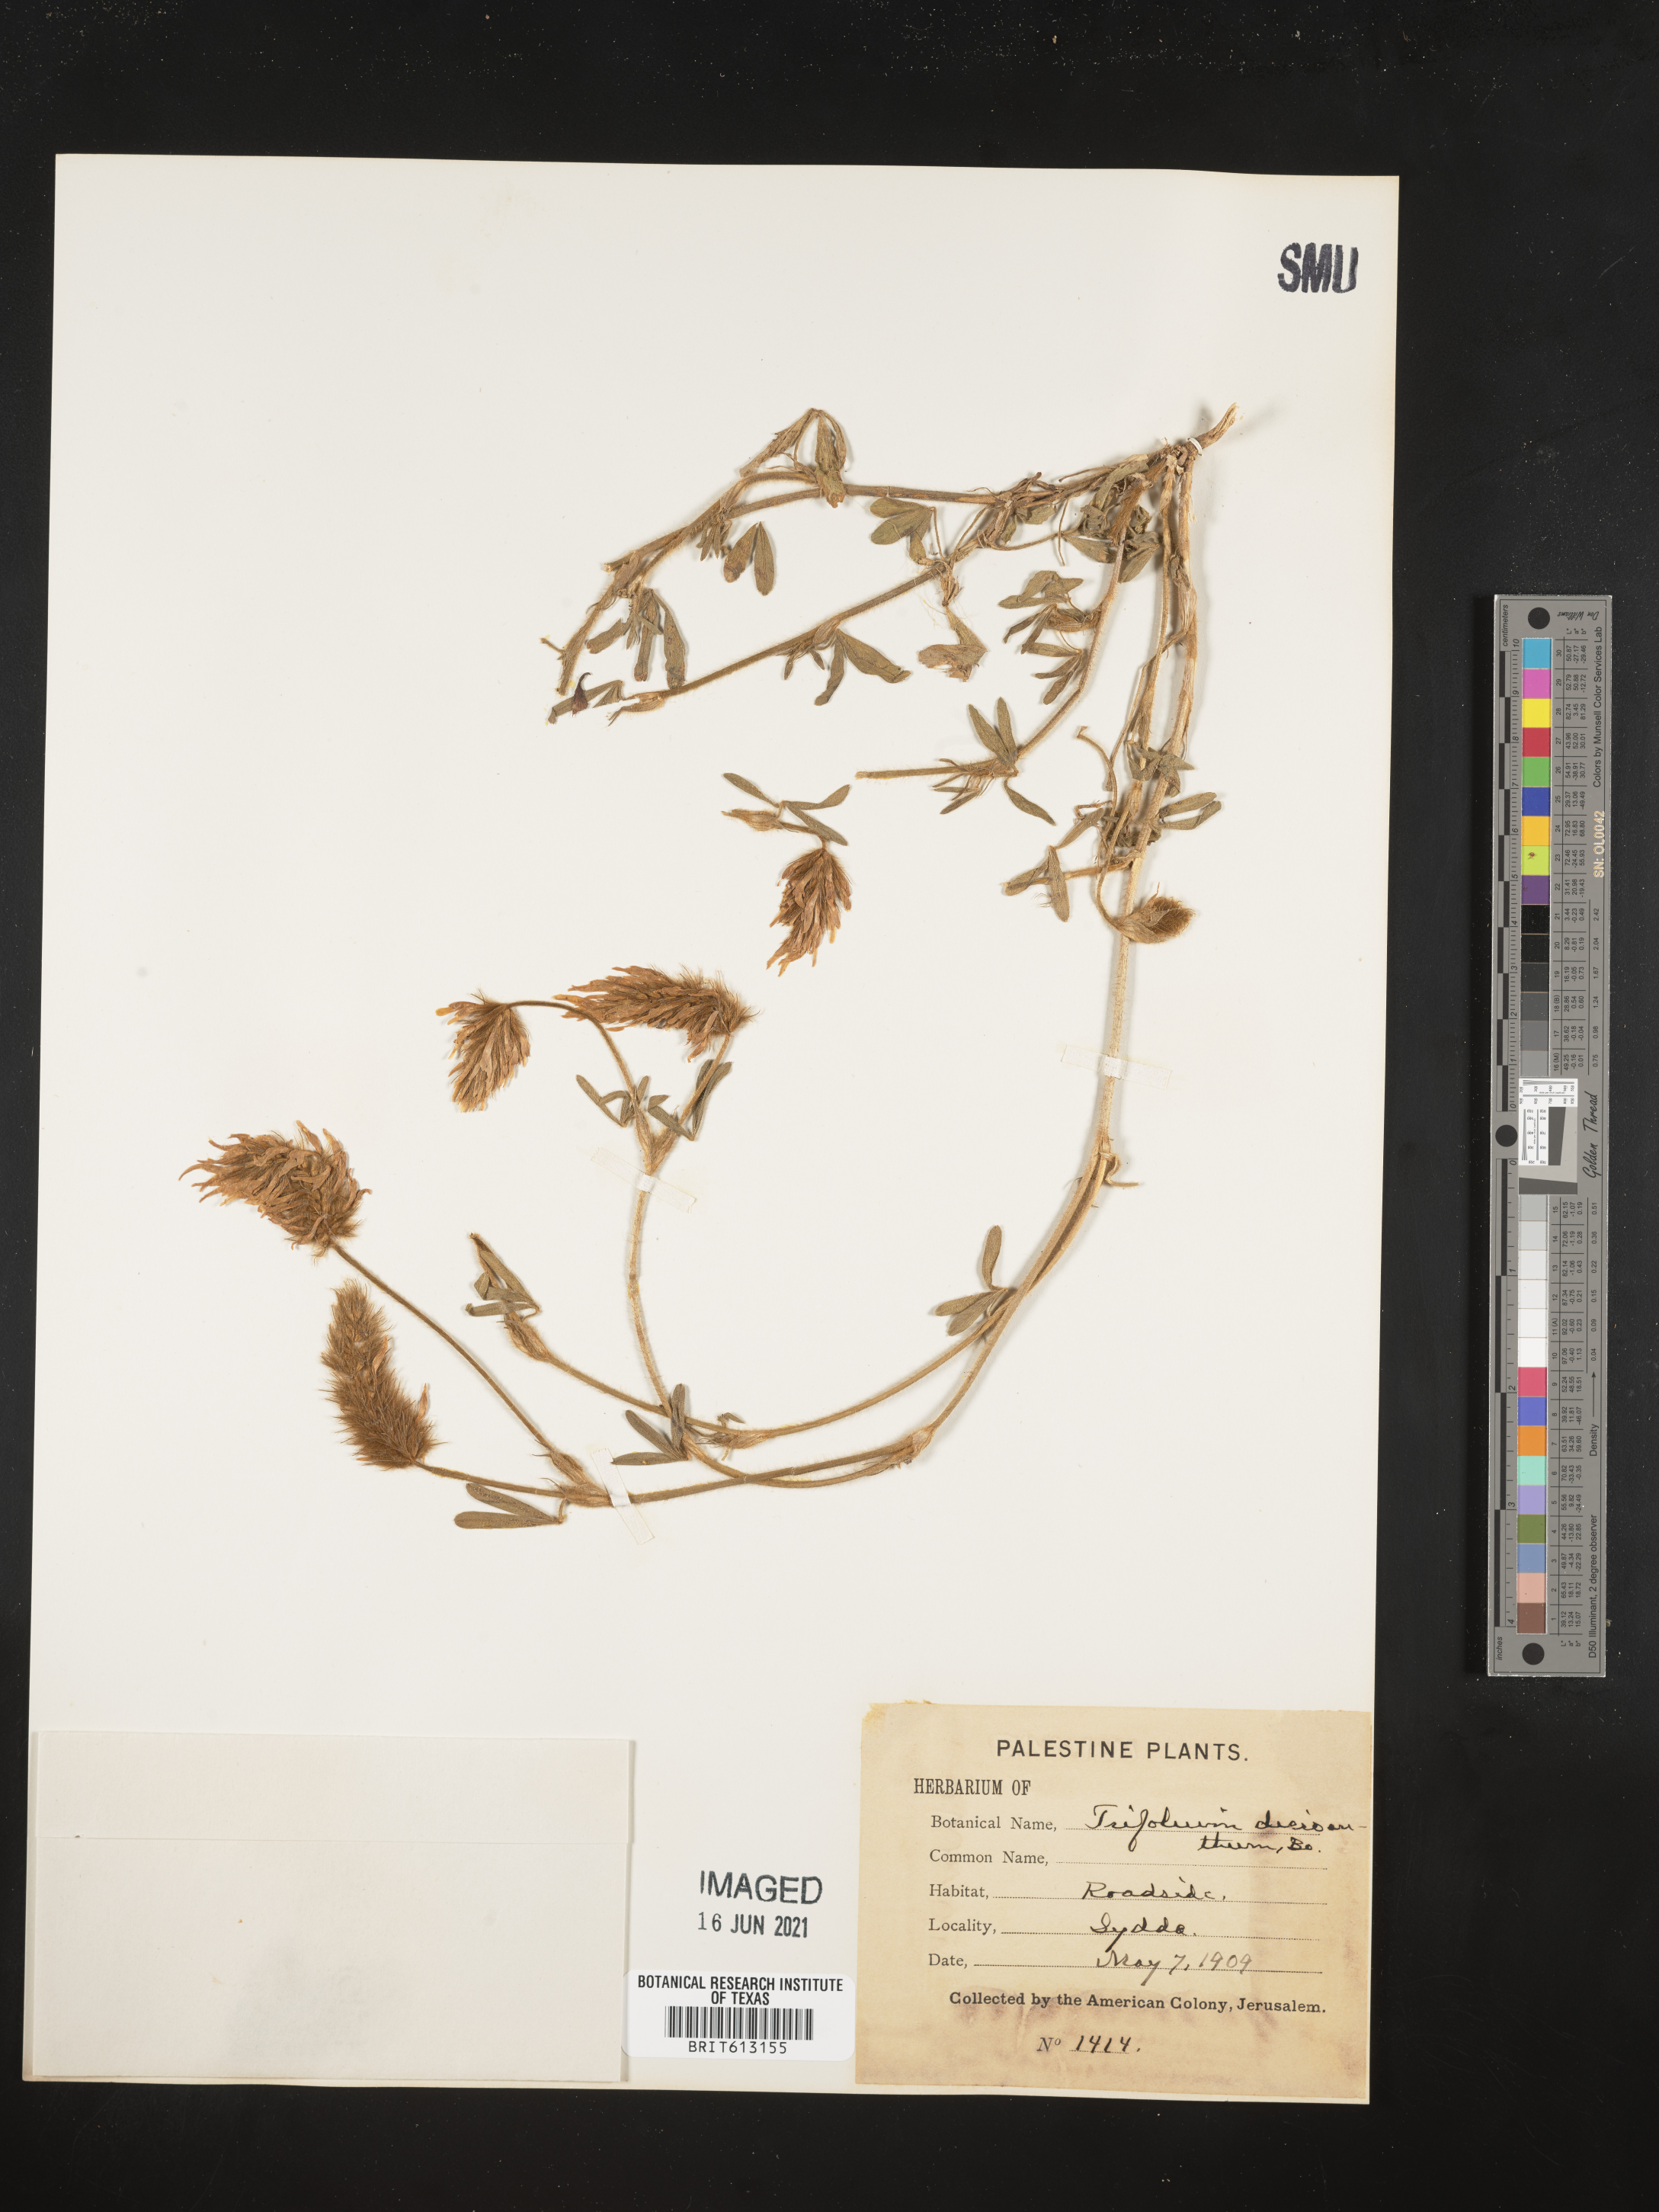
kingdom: Plantae
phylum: Tracheophyta
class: Magnoliopsida
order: Fabales
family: Fabaceae
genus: Trifolium
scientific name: Trifolium
